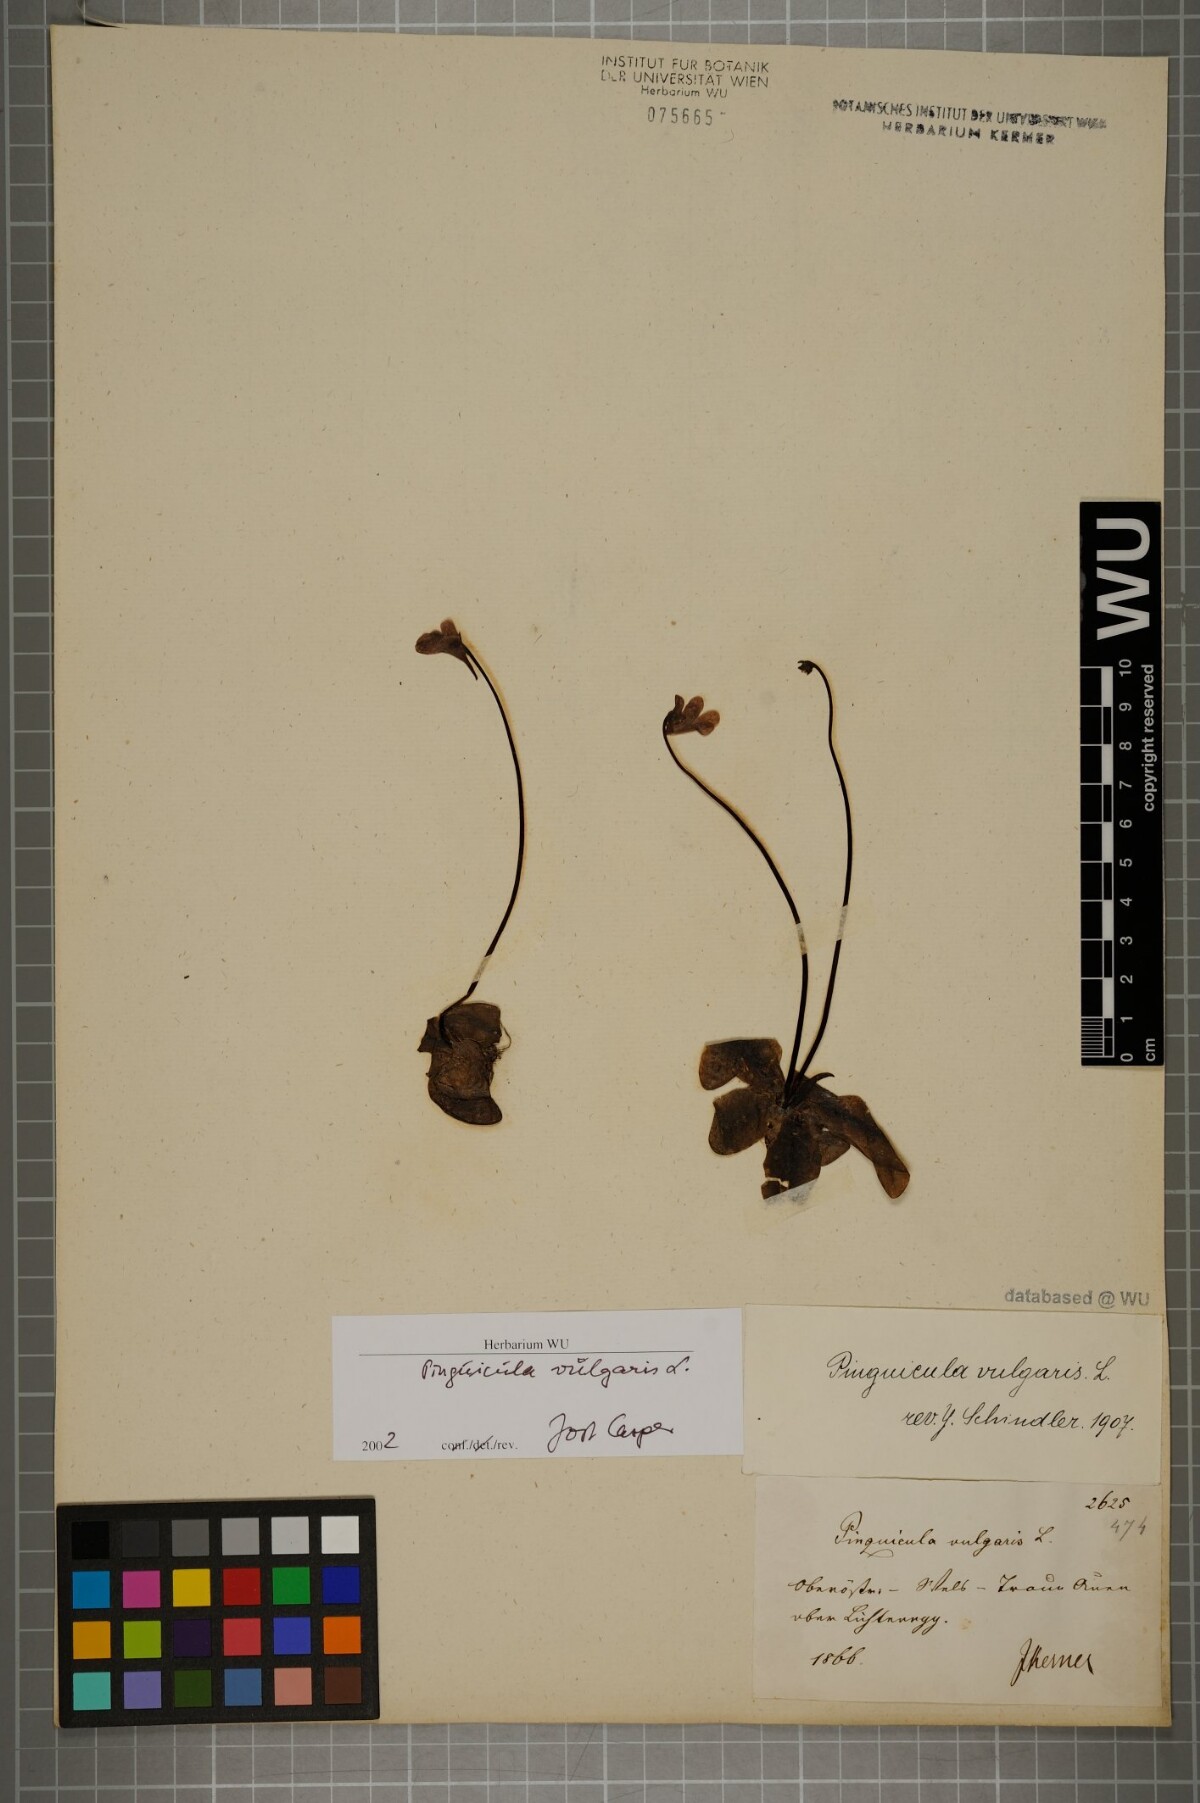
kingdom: Plantae
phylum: Tracheophyta
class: Magnoliopsida
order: Lamiales
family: Lentibulariaceae
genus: Pinguicula
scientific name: Pinguicula vulgaris
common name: Common butterwort
